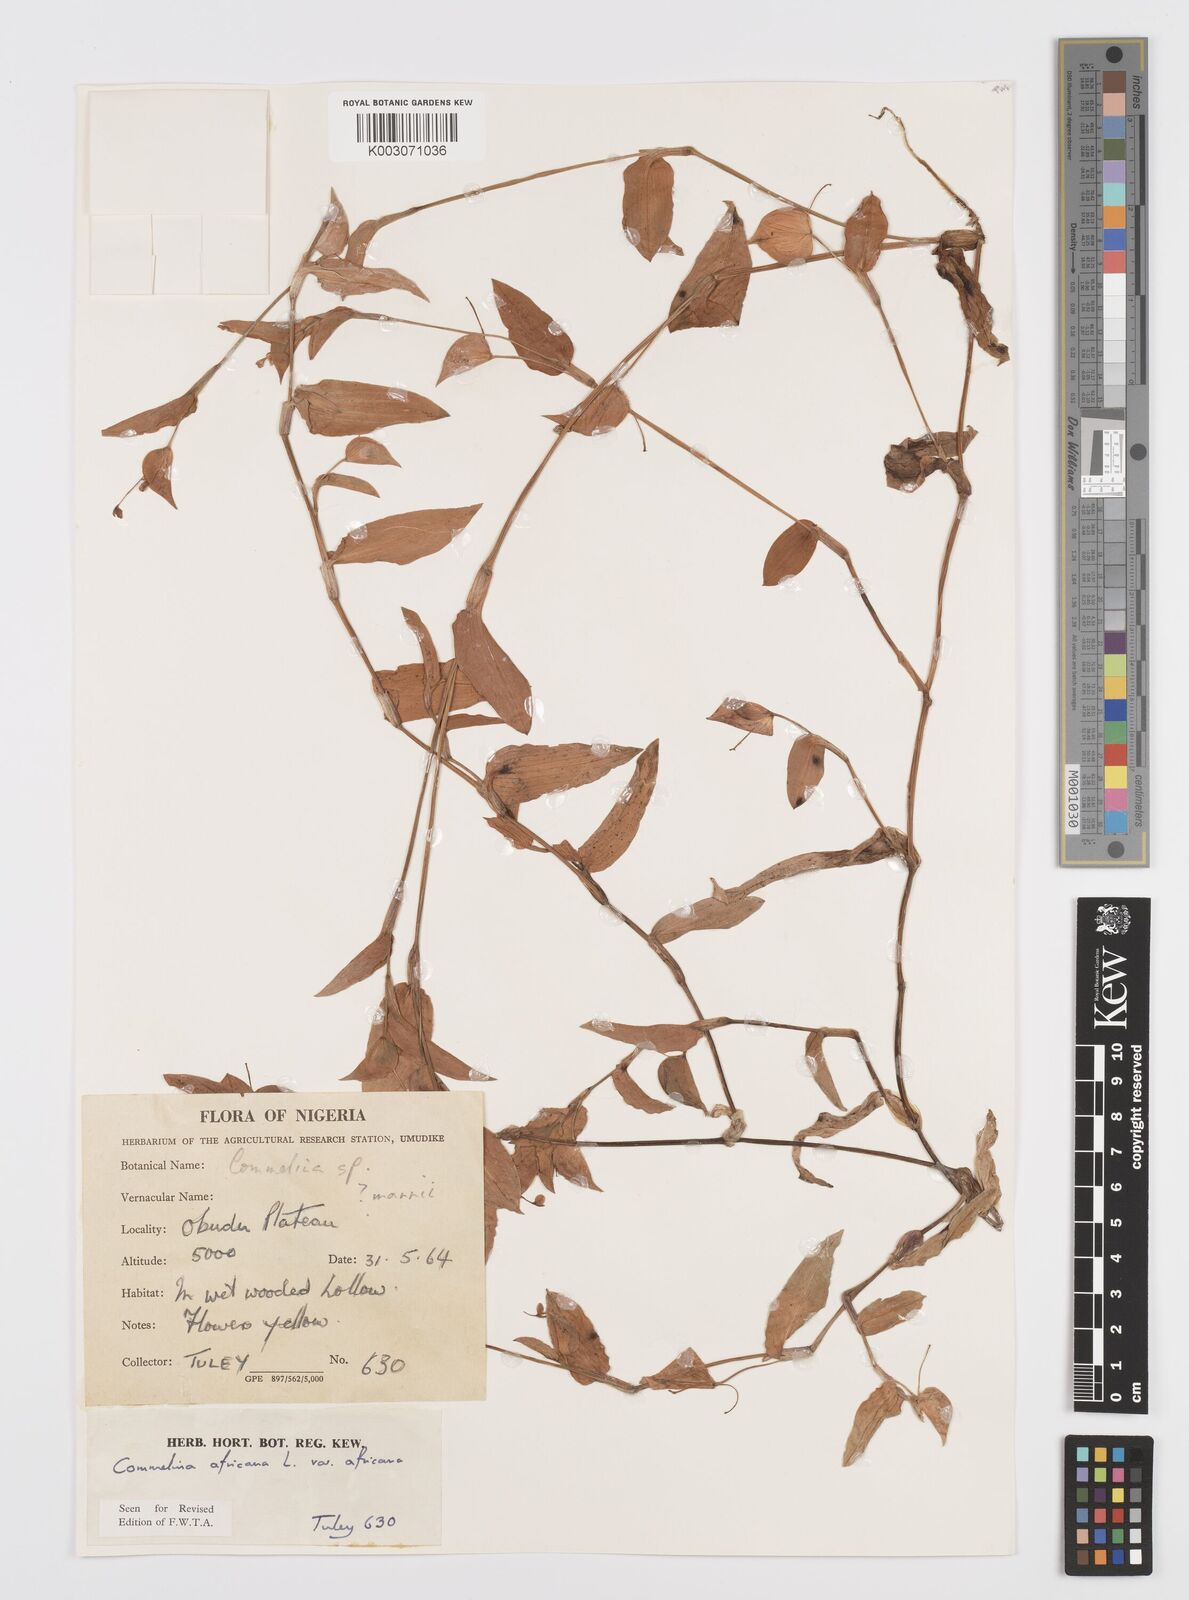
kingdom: Plantae
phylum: Tracheophyta
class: Liliopsida
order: Commelinales
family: Commelinaceae
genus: Commelina
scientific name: Commelina africana
